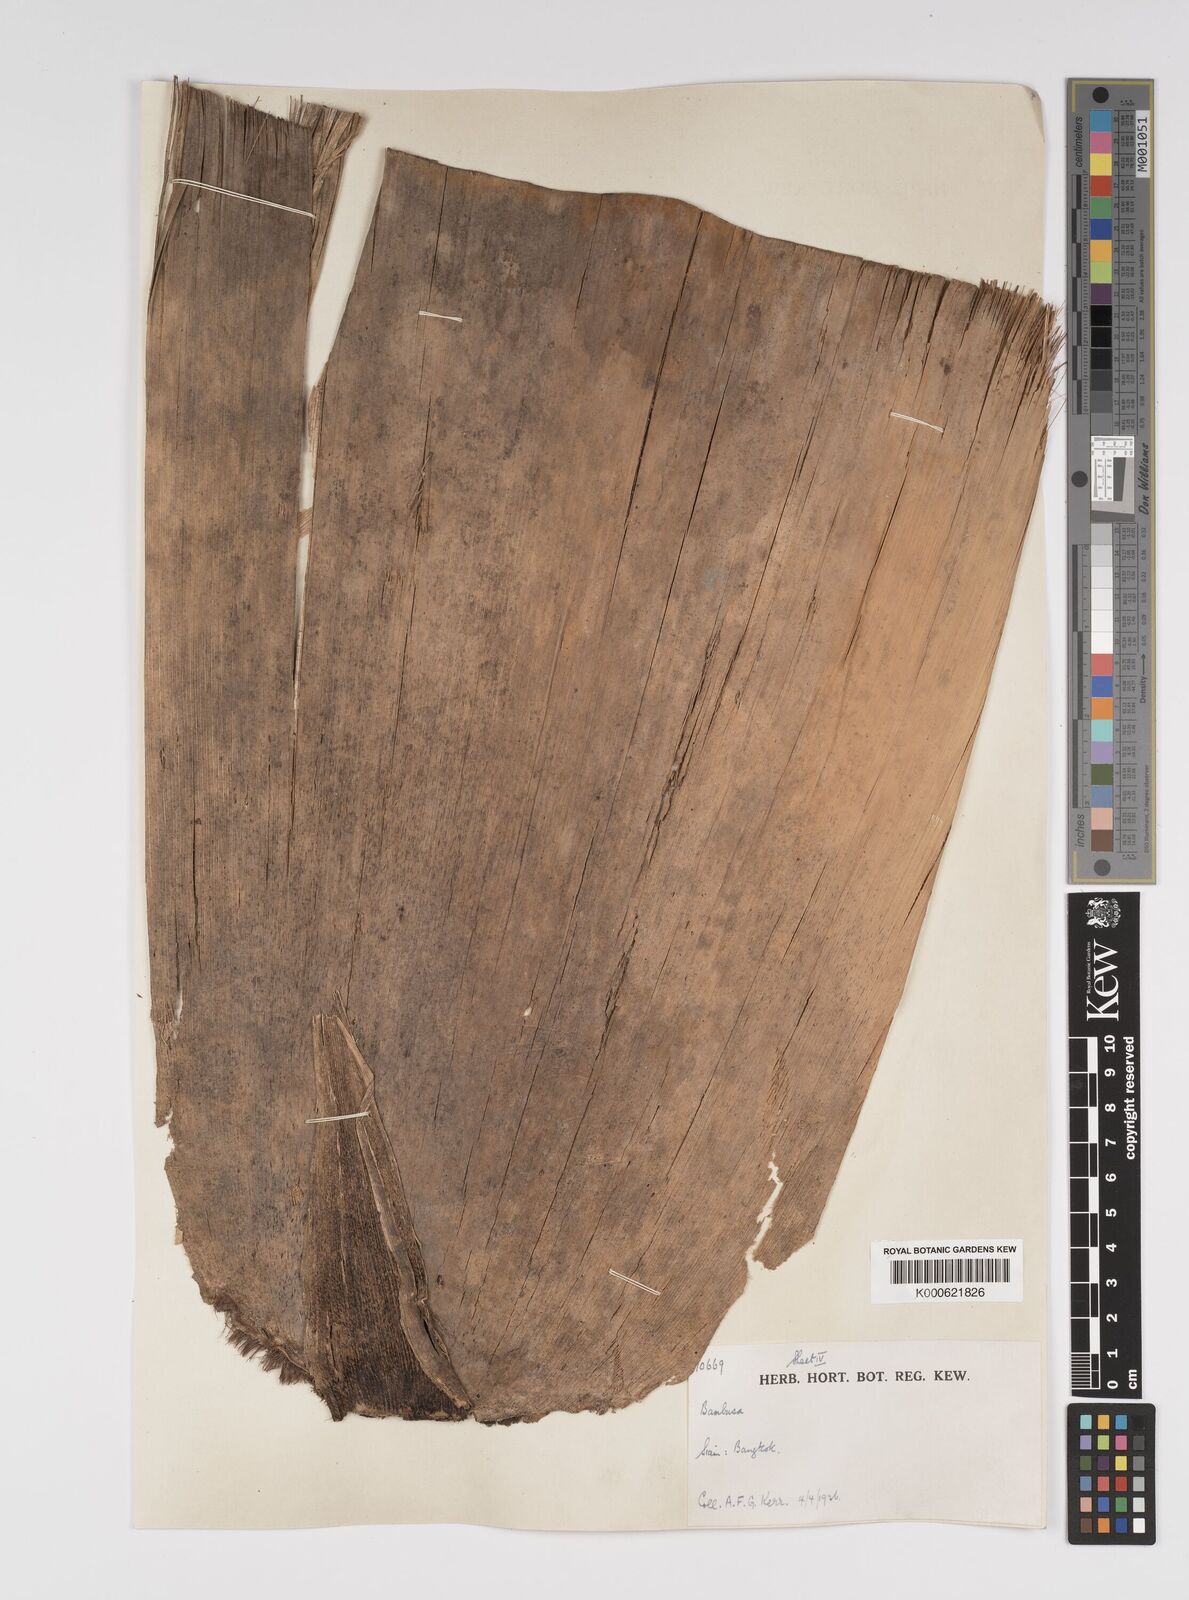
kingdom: Plantae
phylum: Tracheophyta
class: Liliopsida
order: Poales
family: Poaceae
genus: Bambusa
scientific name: Bambusa spinosa
